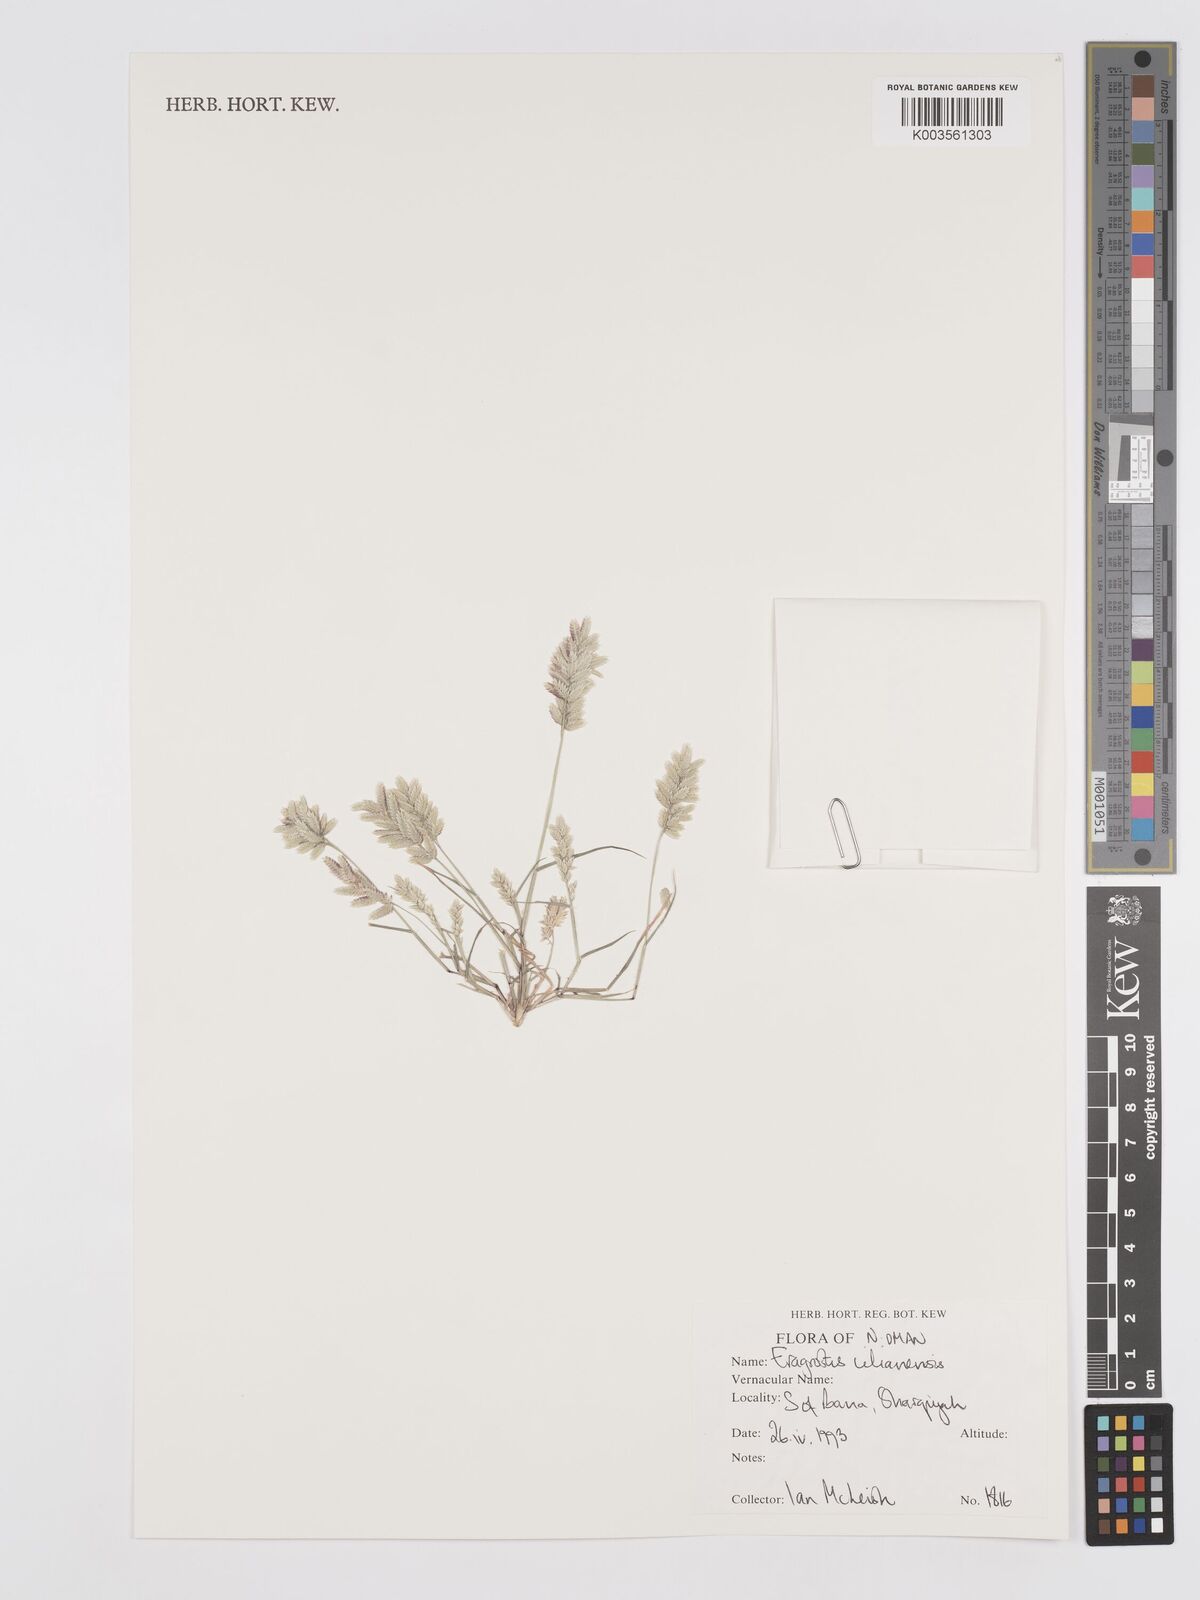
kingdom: Plantae
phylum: Tracheophyta
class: Liliopsida
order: Poales
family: Poaceae
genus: Eragrostis
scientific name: Eragrostis cilianensis
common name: Stinkgrass
